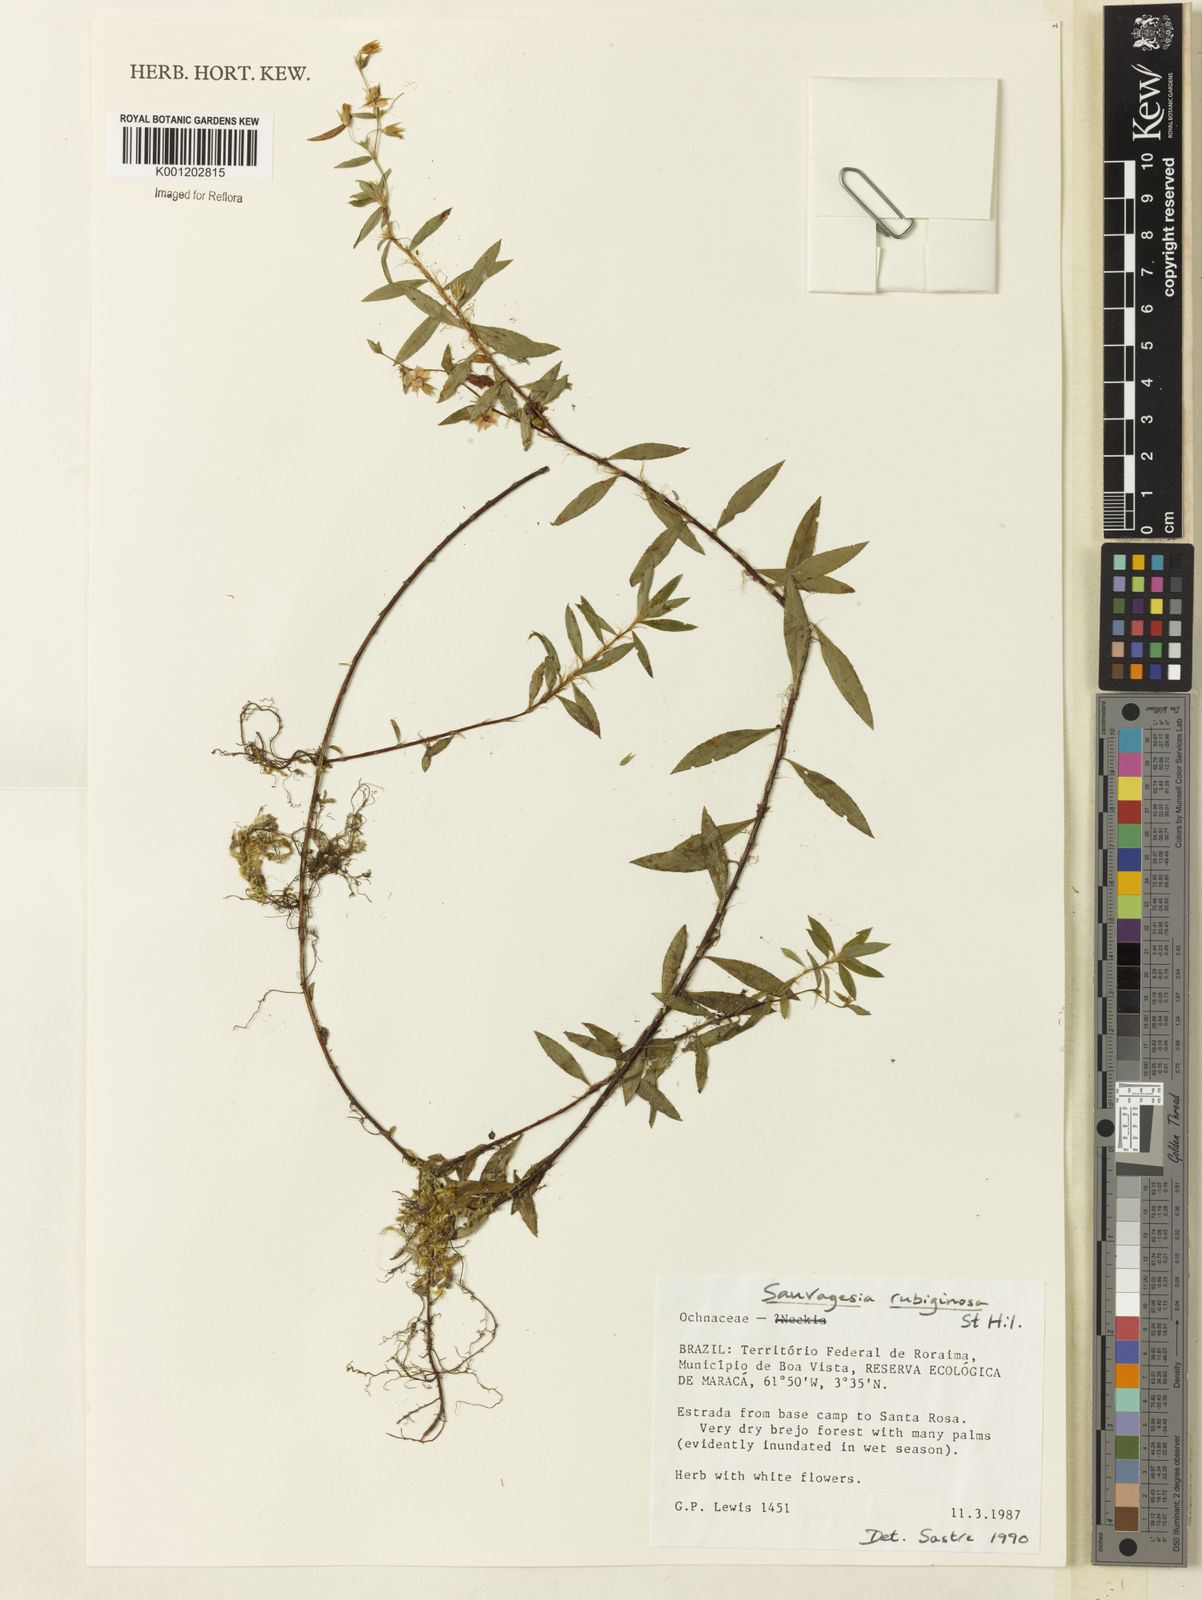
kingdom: Plantae
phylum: Tracheophyta
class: Magnoliopsida
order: Malpighiales
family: Ochnaceae
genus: Sauvagesia
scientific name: Sauvagesia rubiginosa
